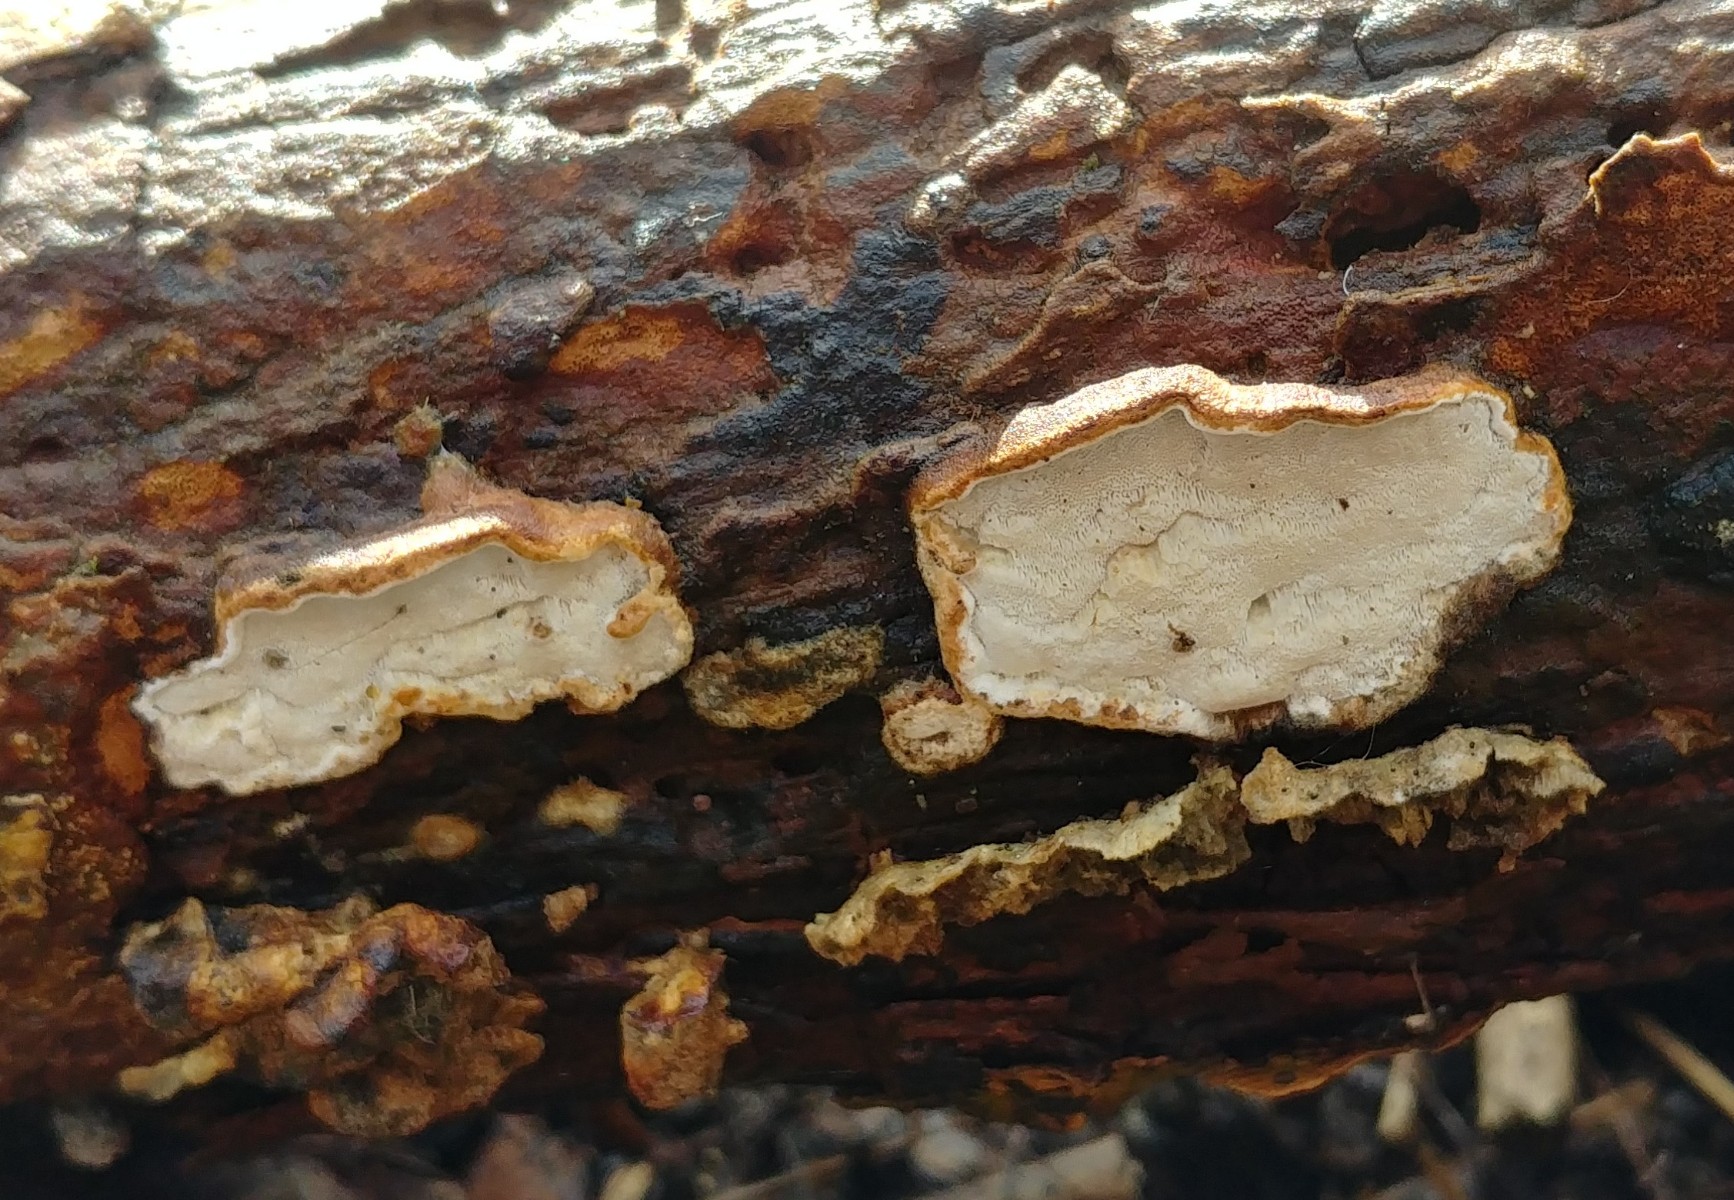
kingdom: Fungi
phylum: Basidiomycota
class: Agaricomycetes
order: Polyporales
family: Incrustoporiaceae
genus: Skeletocutis
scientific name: Skeletocutis nemoralis
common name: stor krystalporesvamp
